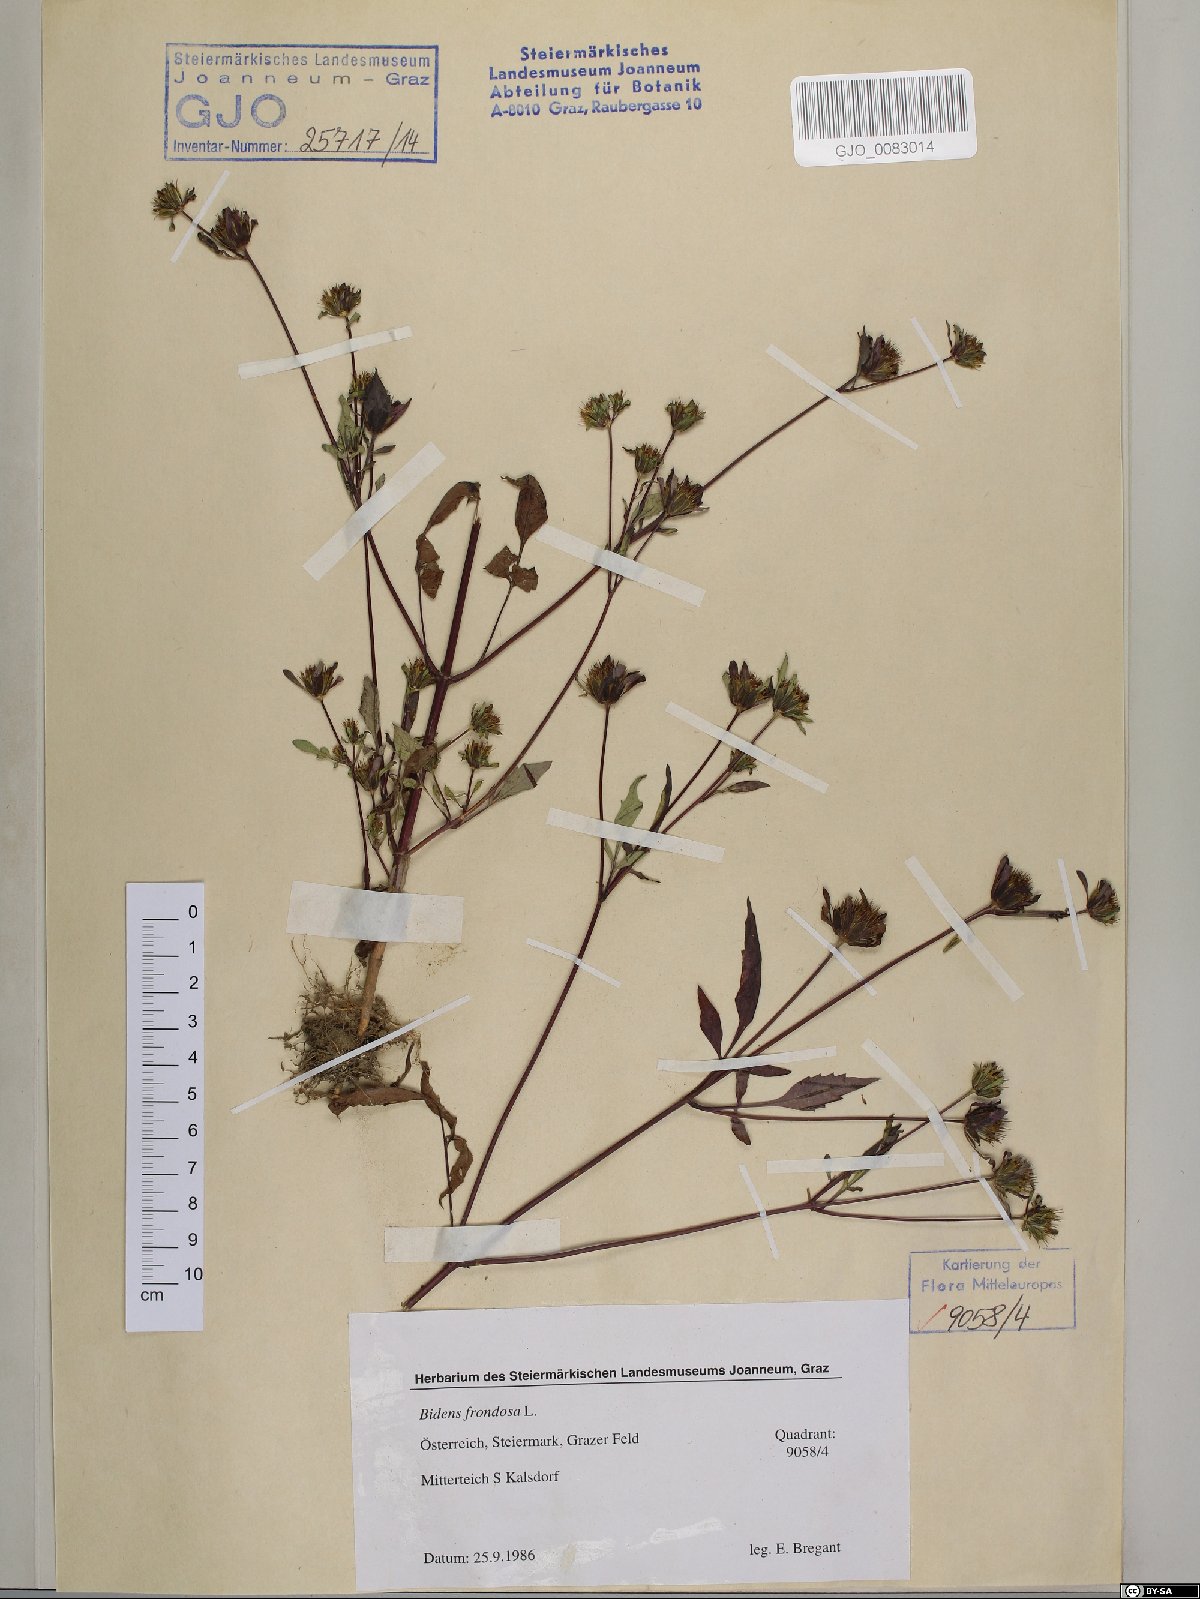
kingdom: Plantae
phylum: Tracheophyta
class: Magnoliopsida
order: Asterales
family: Asteraceae
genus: Bidens
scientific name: Bidens frondosa
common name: Beggarticks
